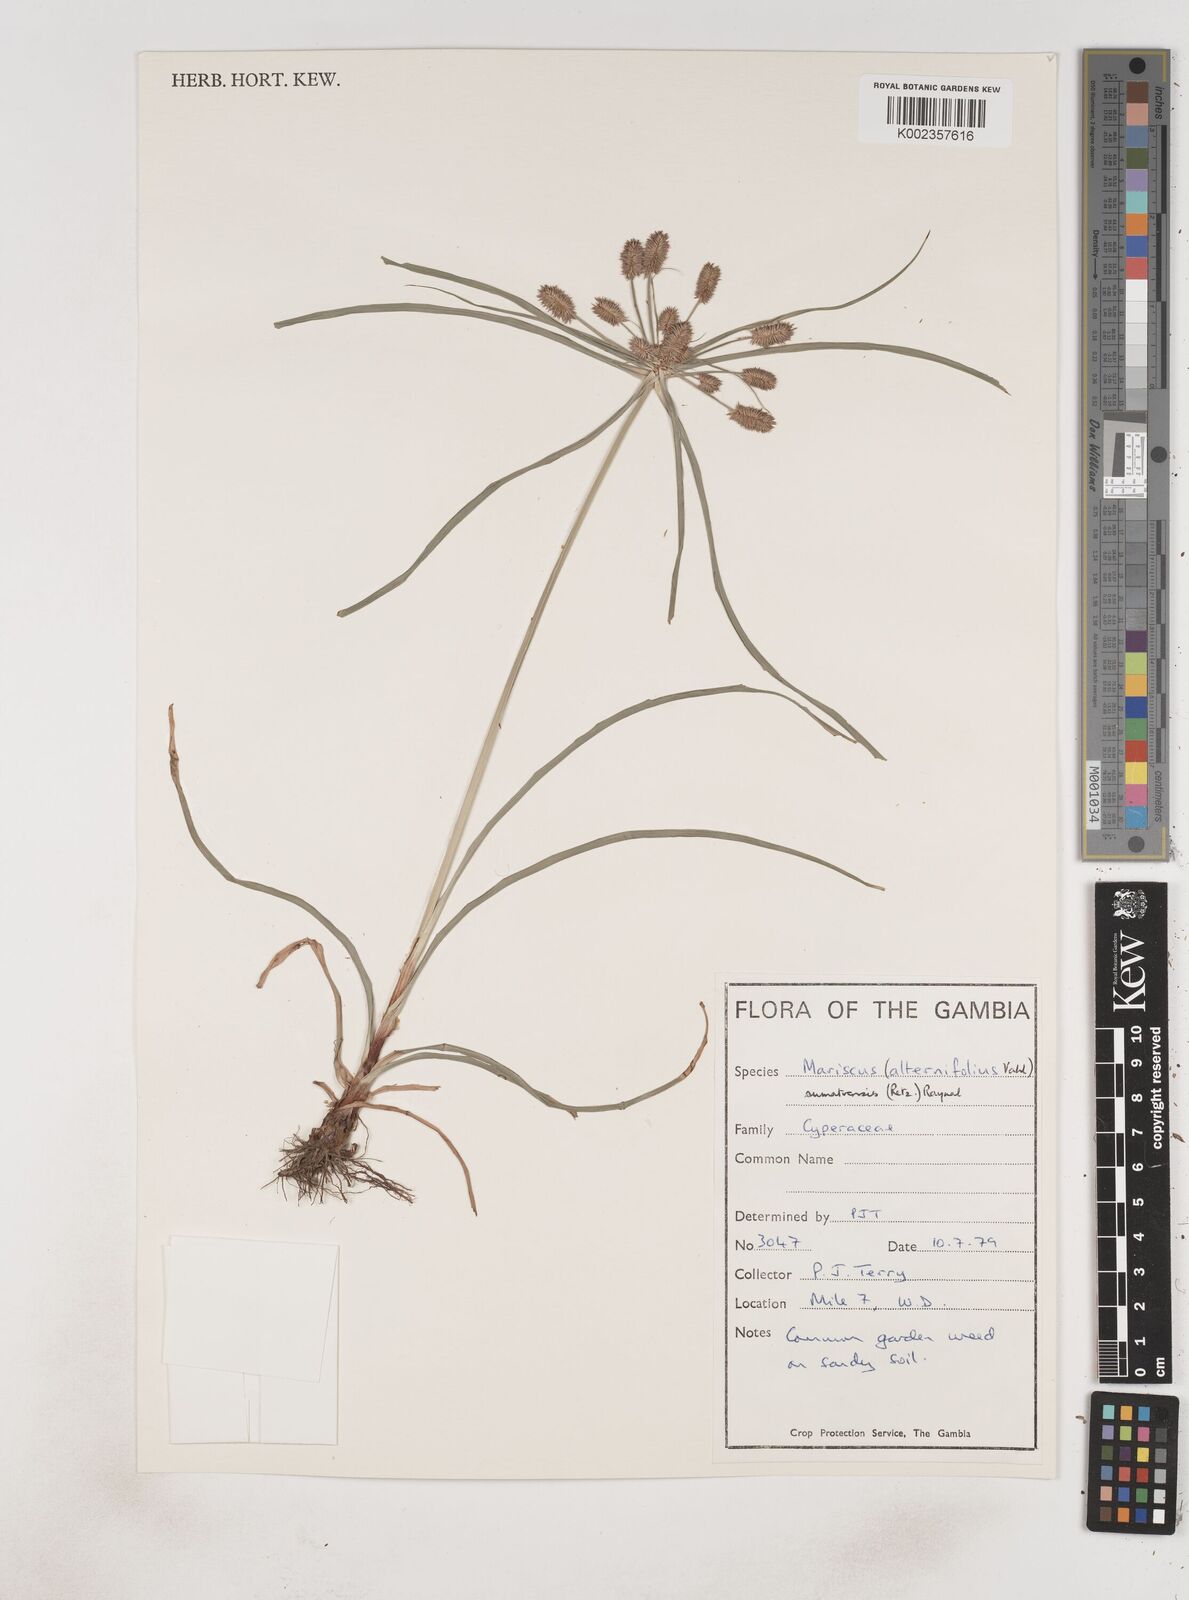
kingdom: Plantae
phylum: Tracheophyta
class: Liliopsida
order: Poales
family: Cyperaceae
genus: Cyperus
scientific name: Cyperus cyperoides
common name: Pacific island flat sedge
